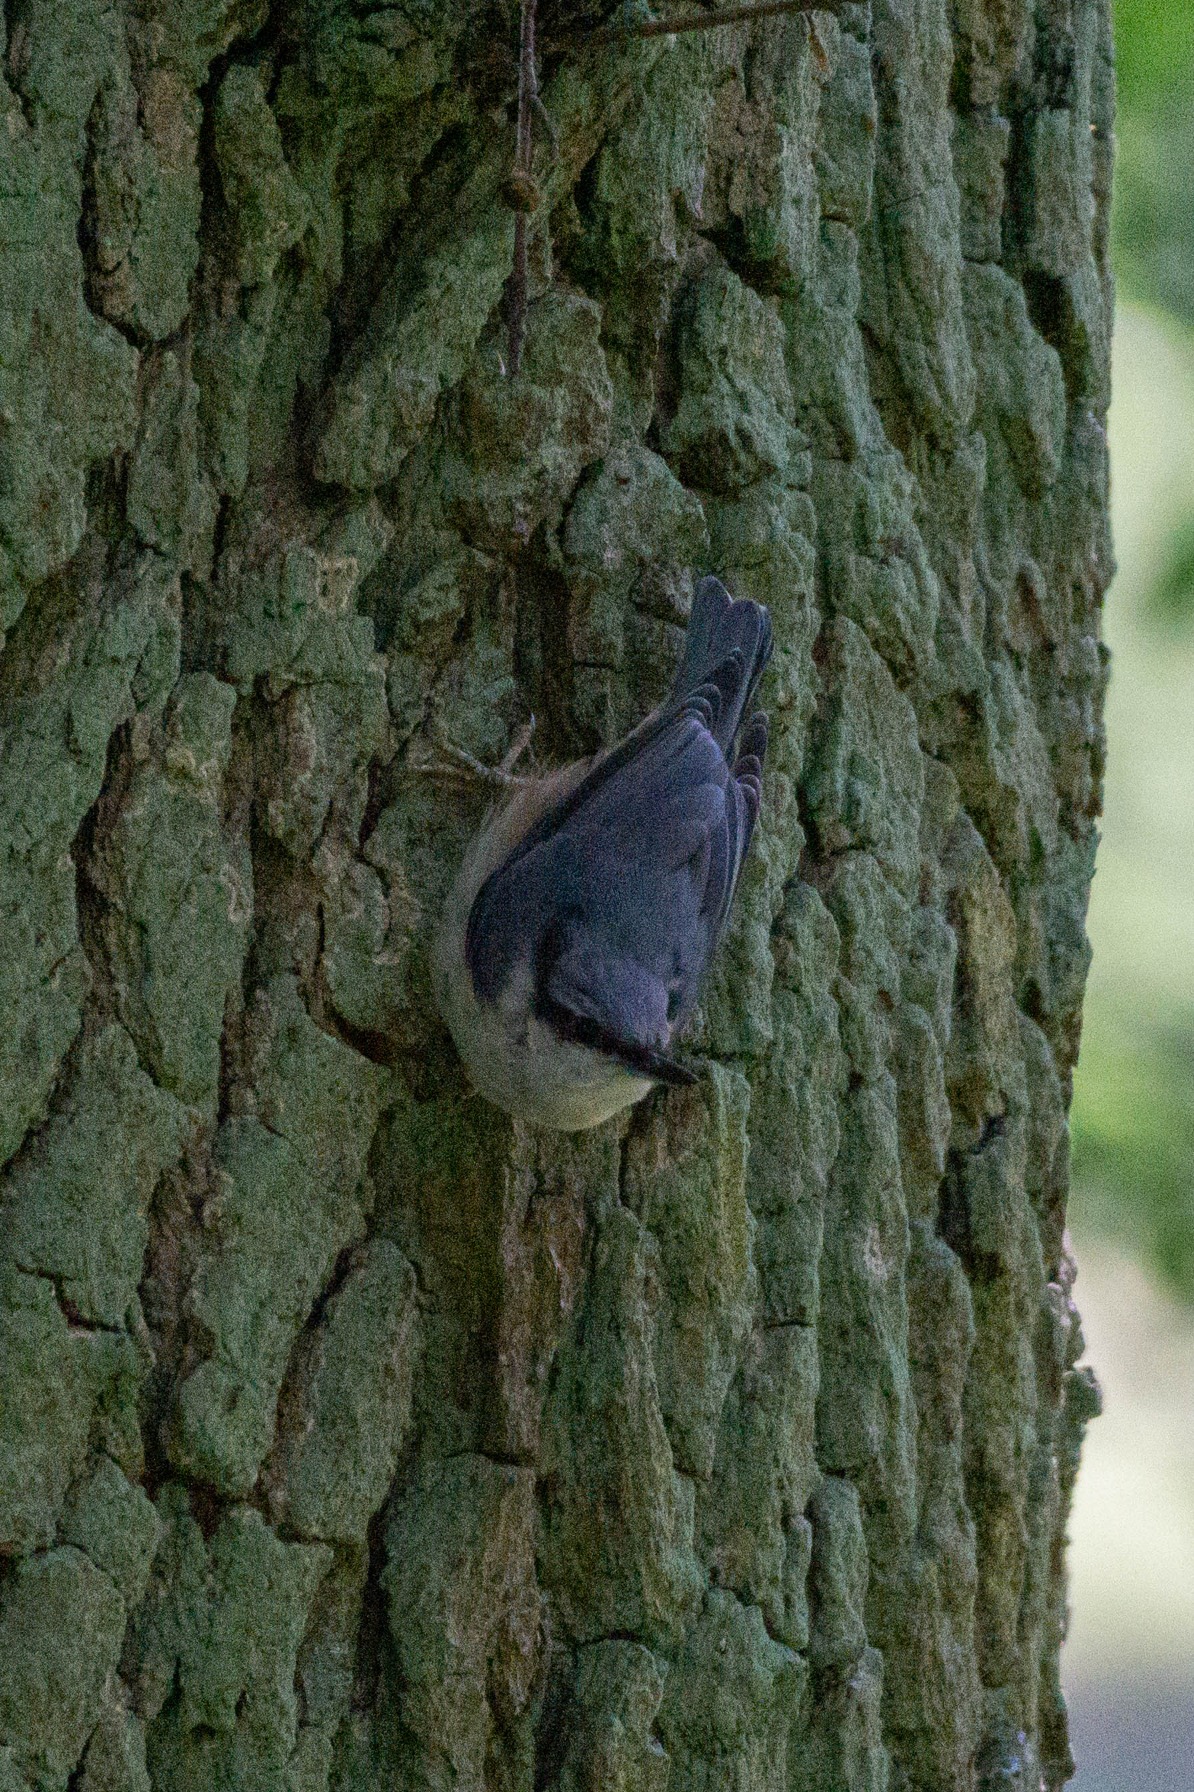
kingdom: Animalia
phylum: Chordata
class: Aves
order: Passeriformes
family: Sittidae
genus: Sitta
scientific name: Sitta europaea
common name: Spætmejse
